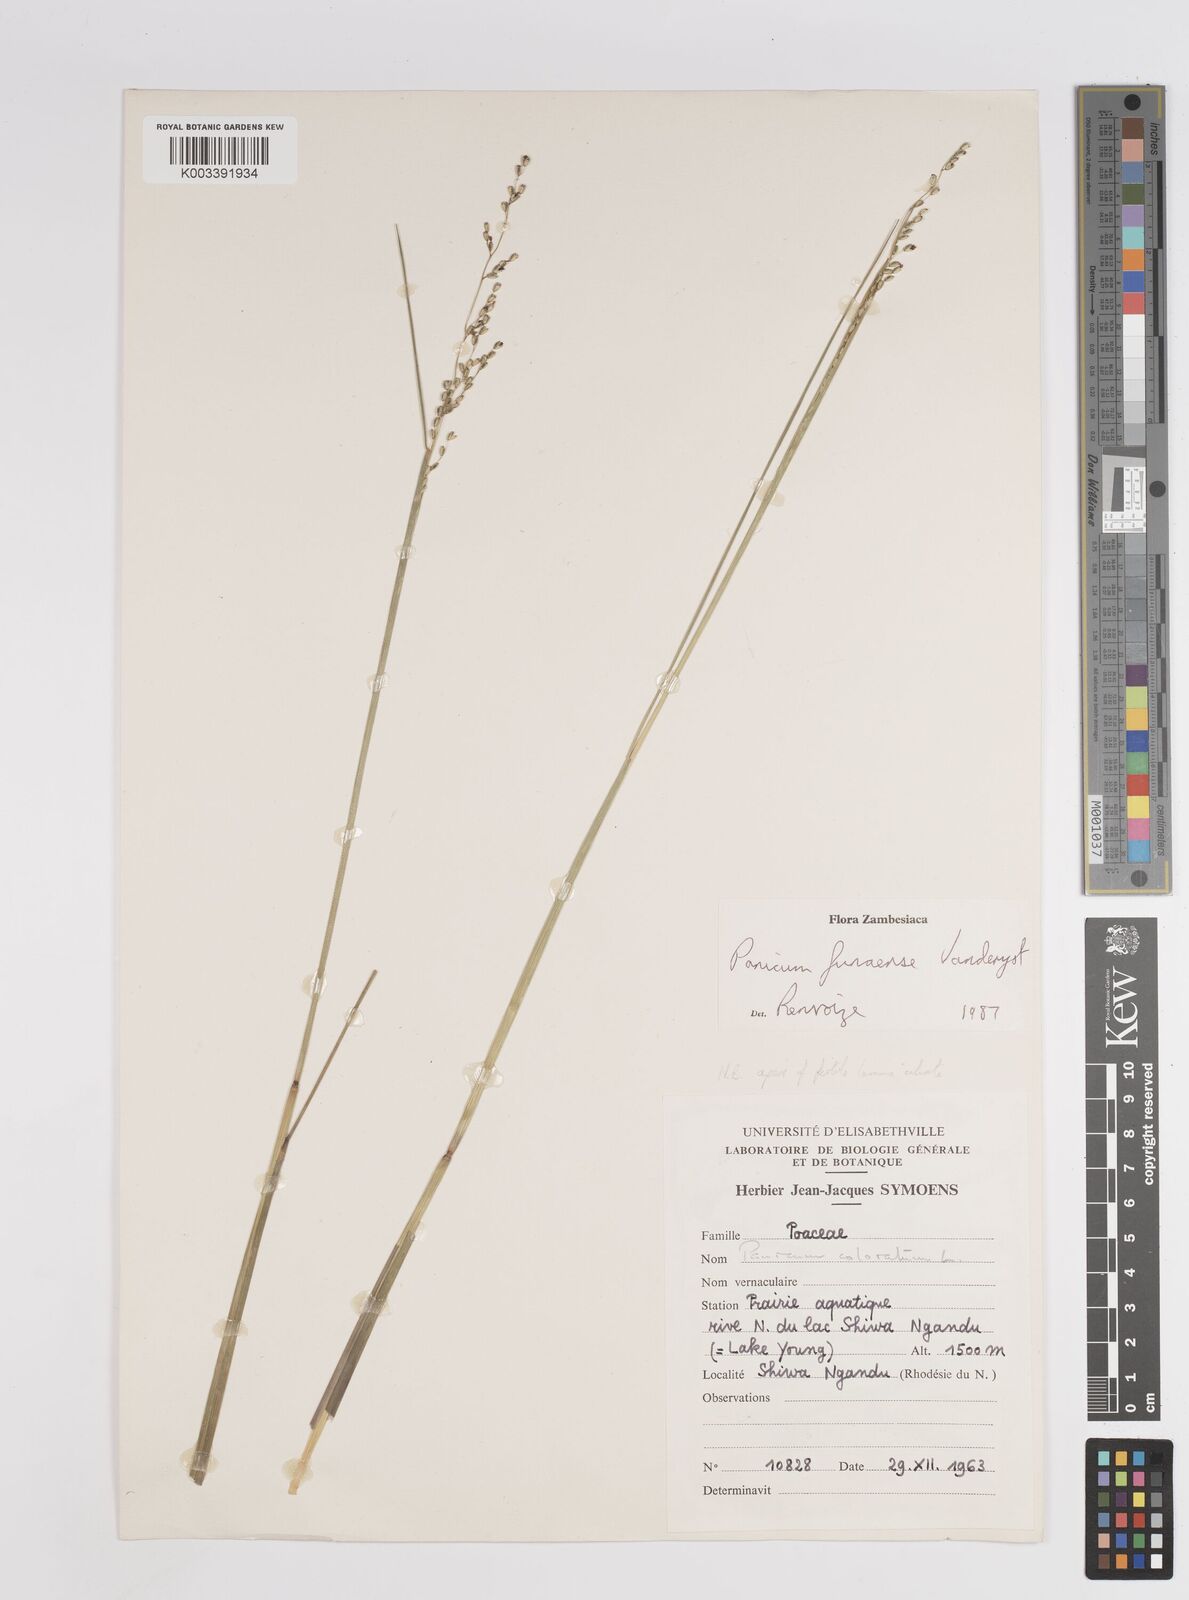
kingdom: Plantae
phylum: Tracheophyta
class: Liliopsida
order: Poales
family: Poaceae
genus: Panicum
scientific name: Panicum spongiosum
